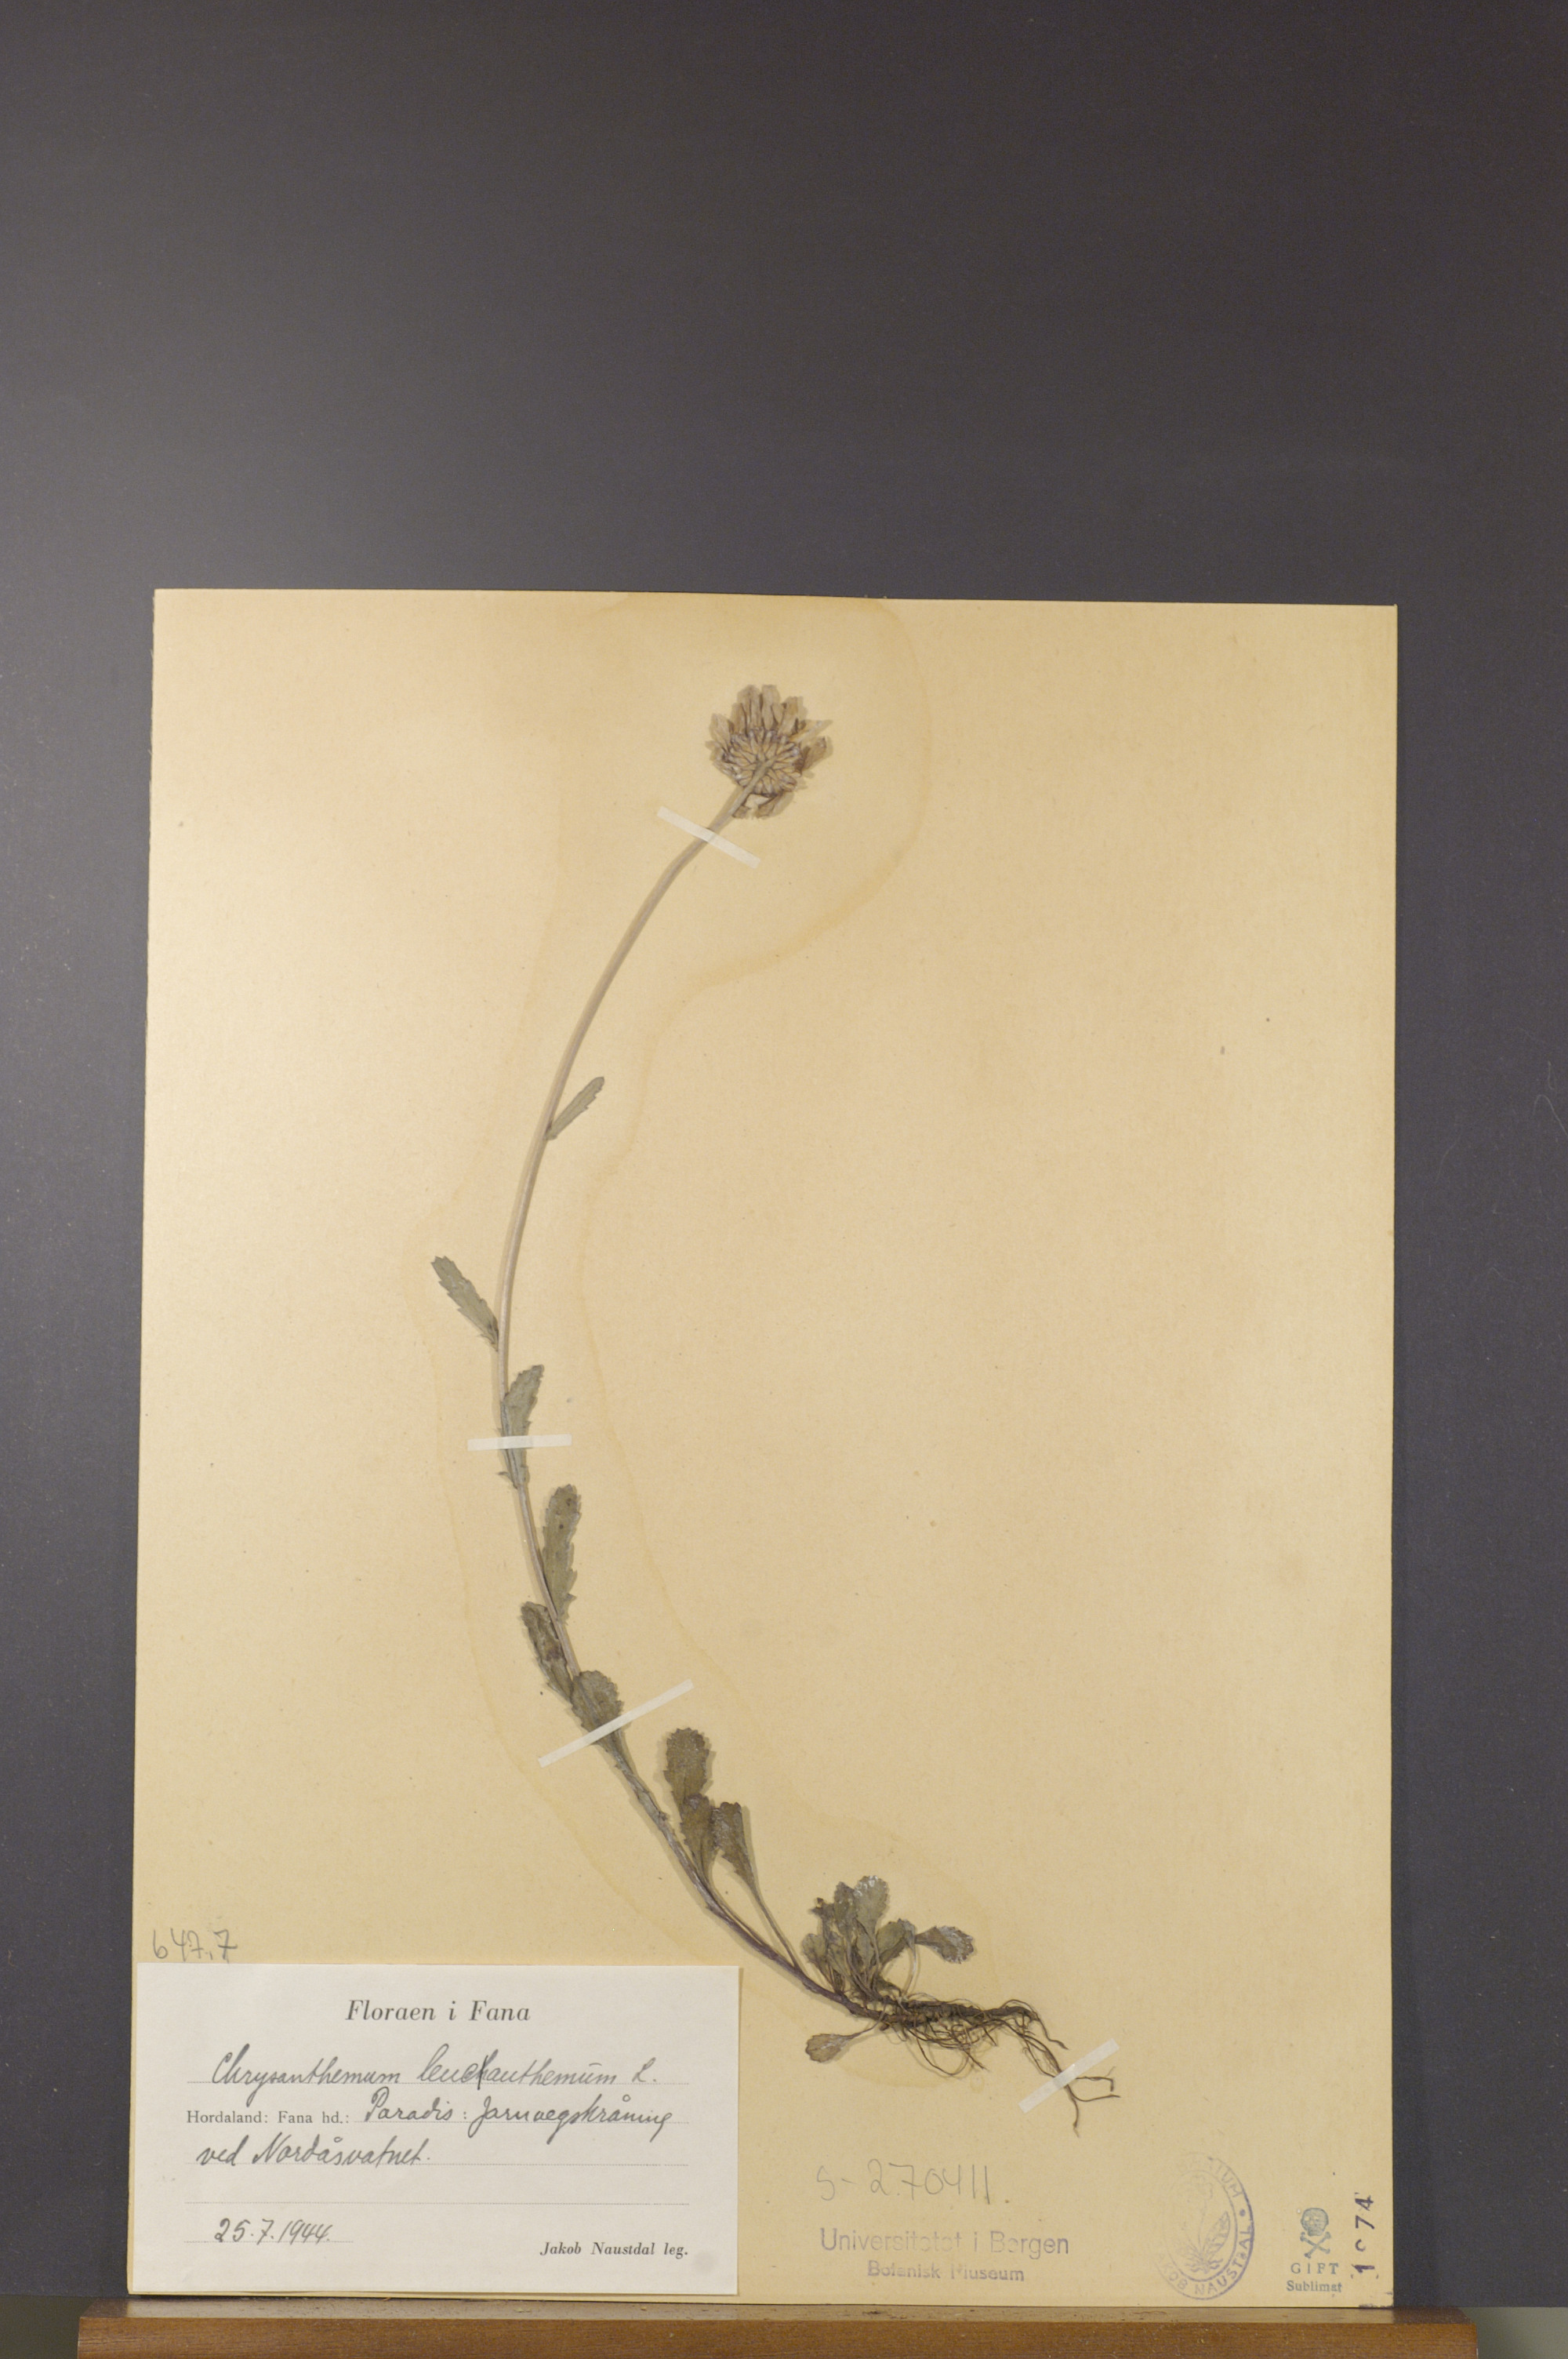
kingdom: Plantae
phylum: Tracheophyta
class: Magnoliopsida
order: Asterales
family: Asteraceae
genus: Leucanthemum
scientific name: Leucanthemum vulgare
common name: Oxeye daisy
